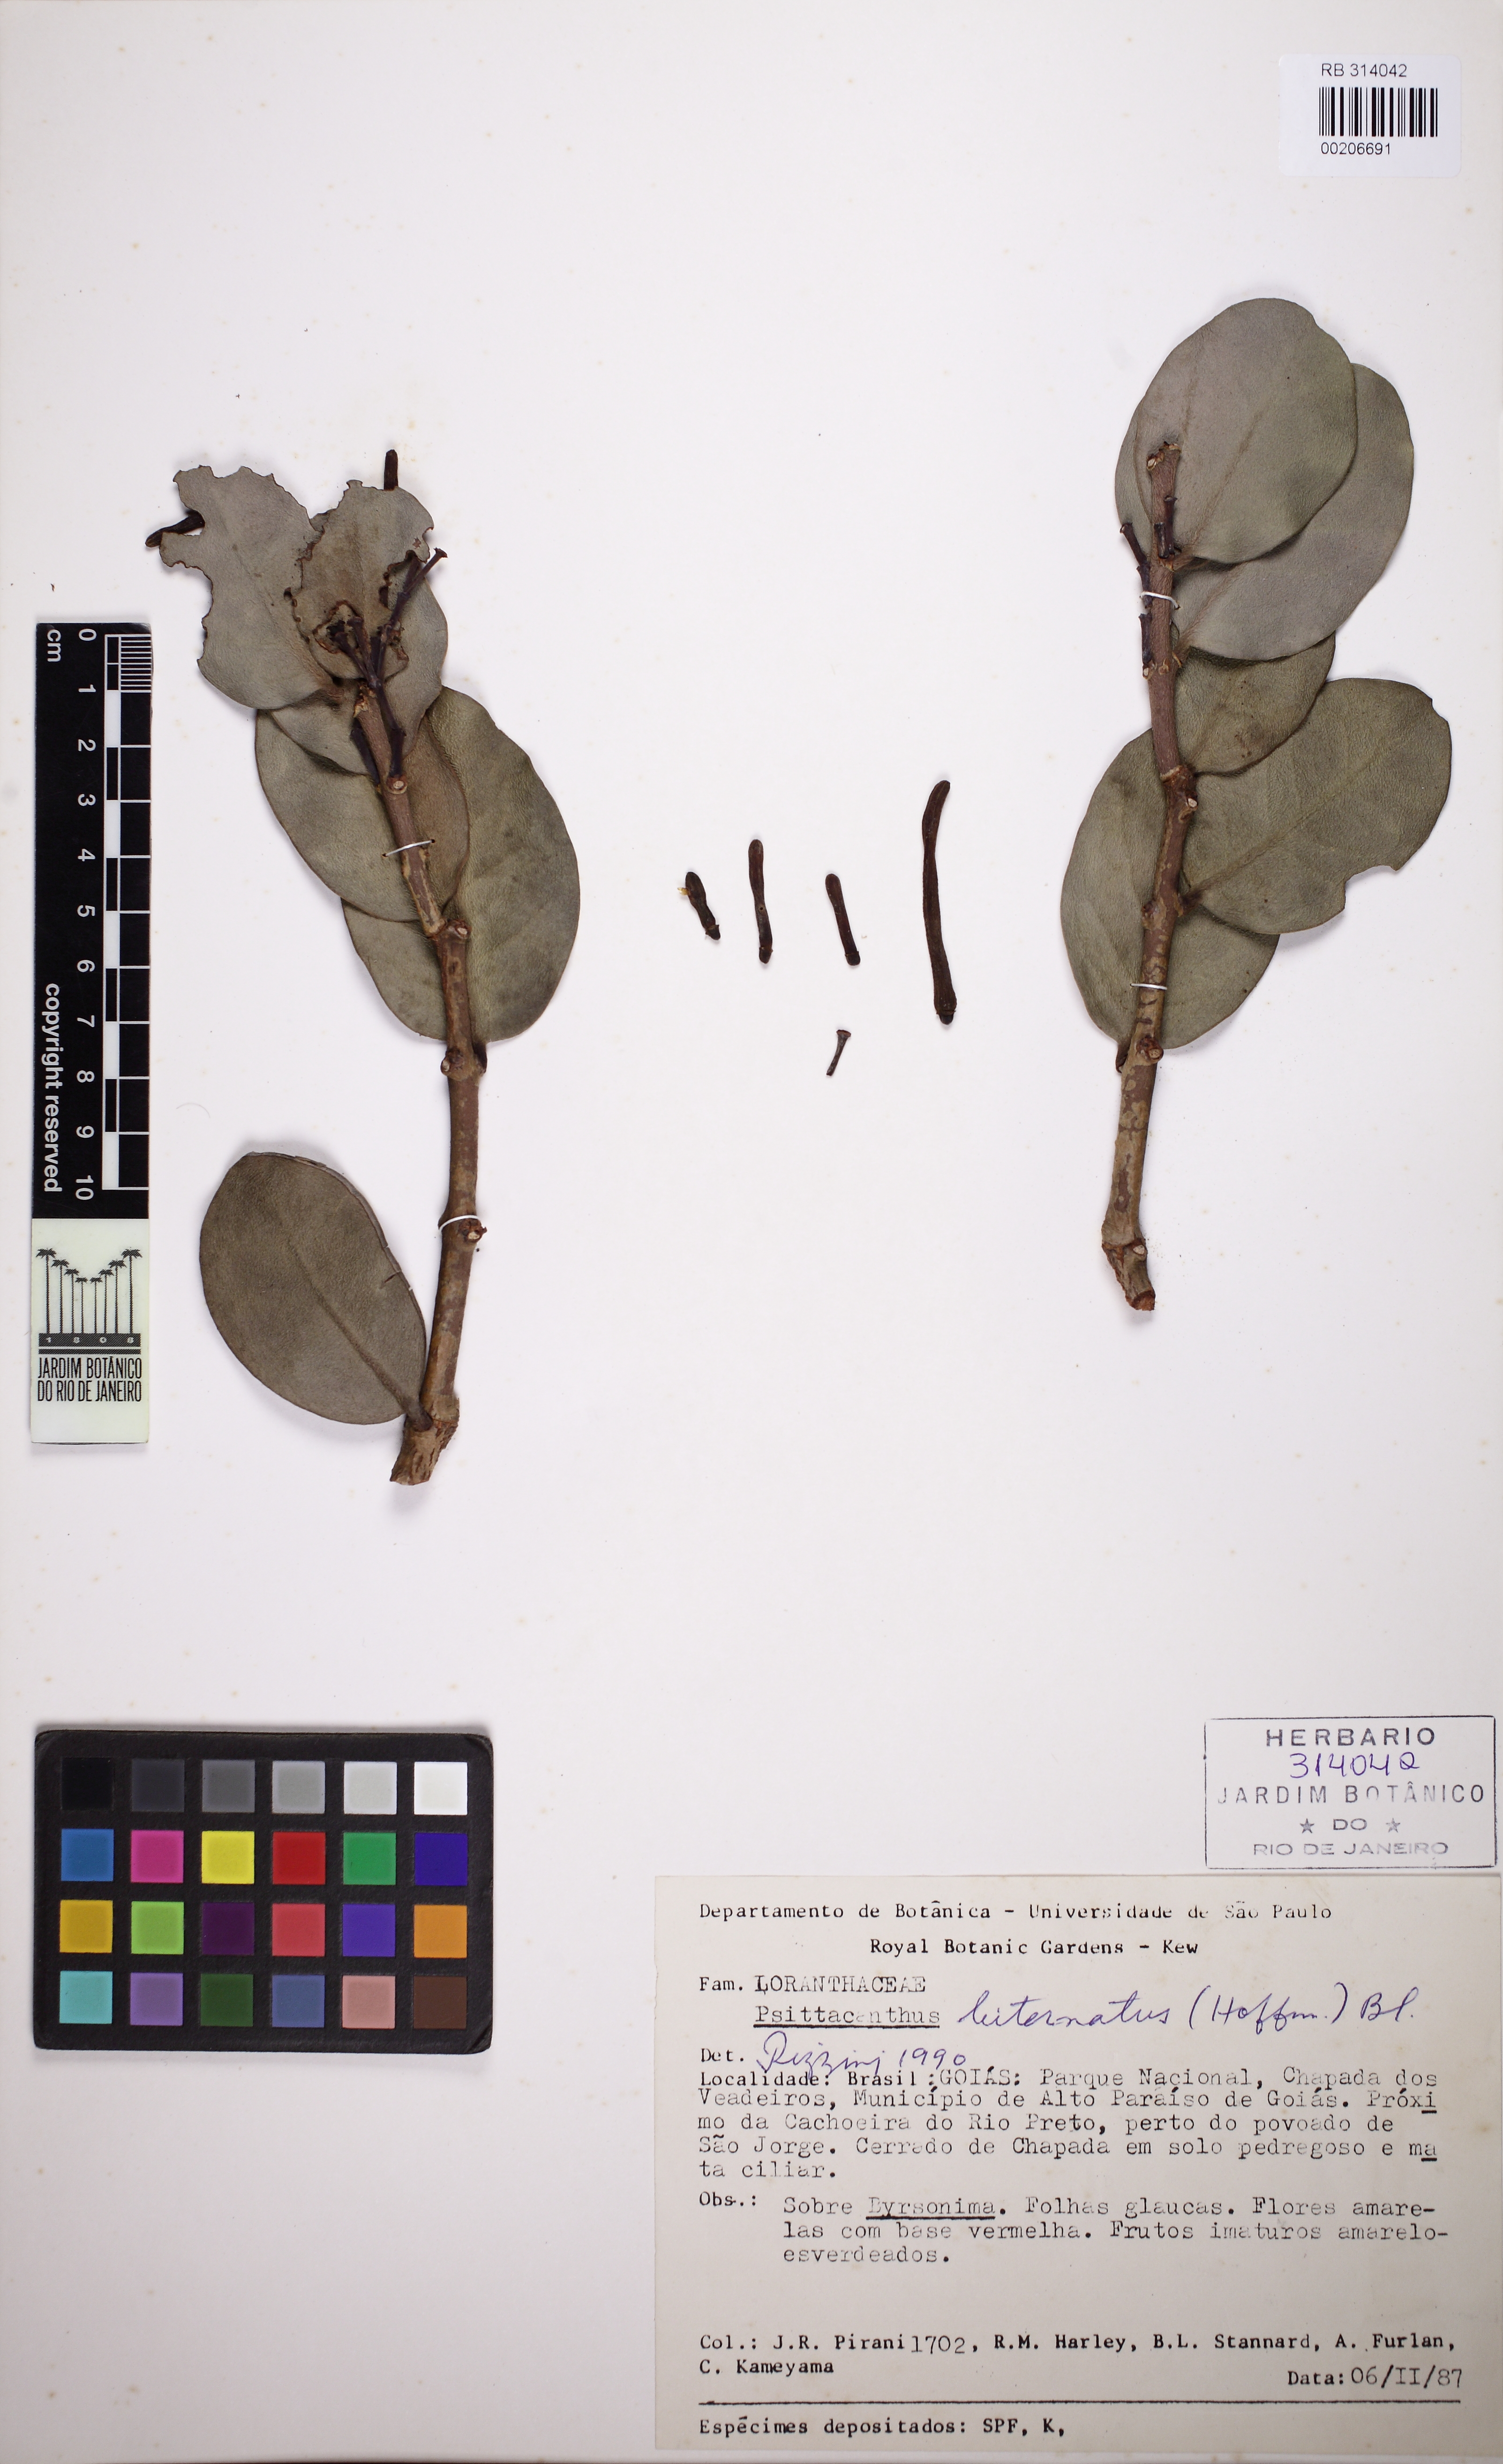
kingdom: Plantae
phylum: Tracheophyta
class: Magnoliopsida
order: Santalales
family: Loranthaceae
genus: Psittacanthus
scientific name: Psittacanthus biternatus
